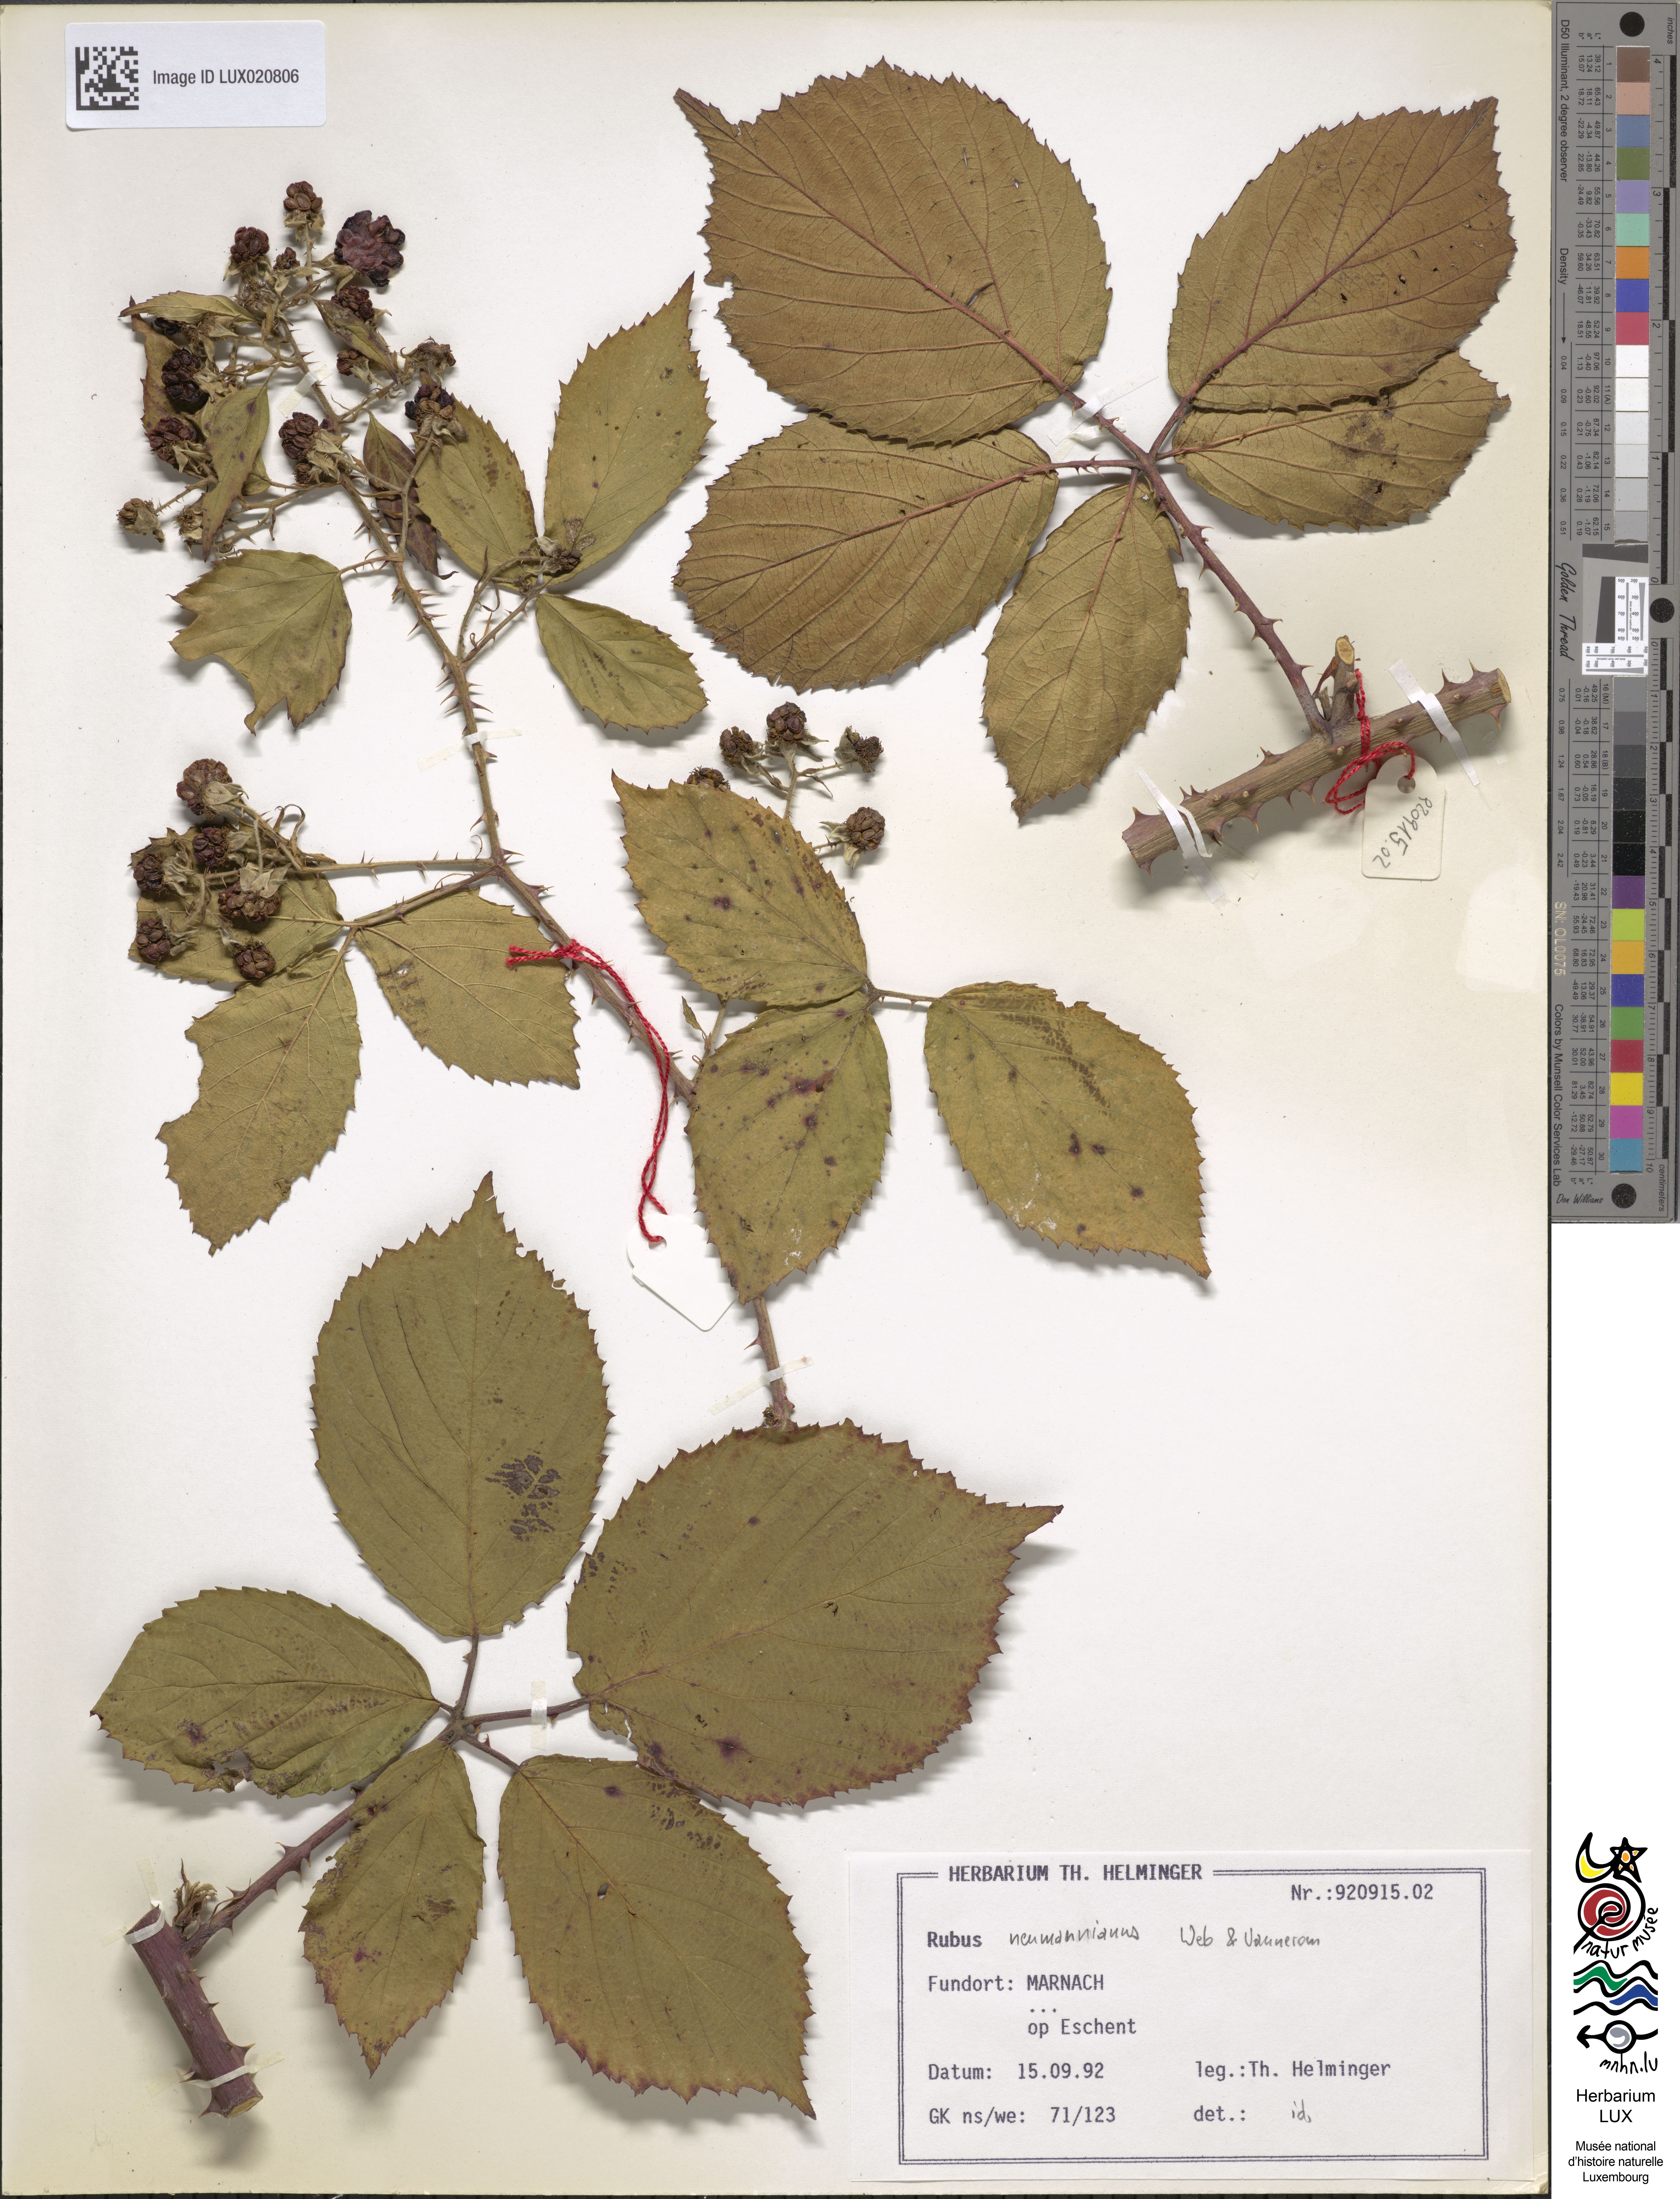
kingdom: Plantae
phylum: Tracheophyta
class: Magnoliopsida
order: Rosales
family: Rosaceae
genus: Rubus
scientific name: Rubus favonii
